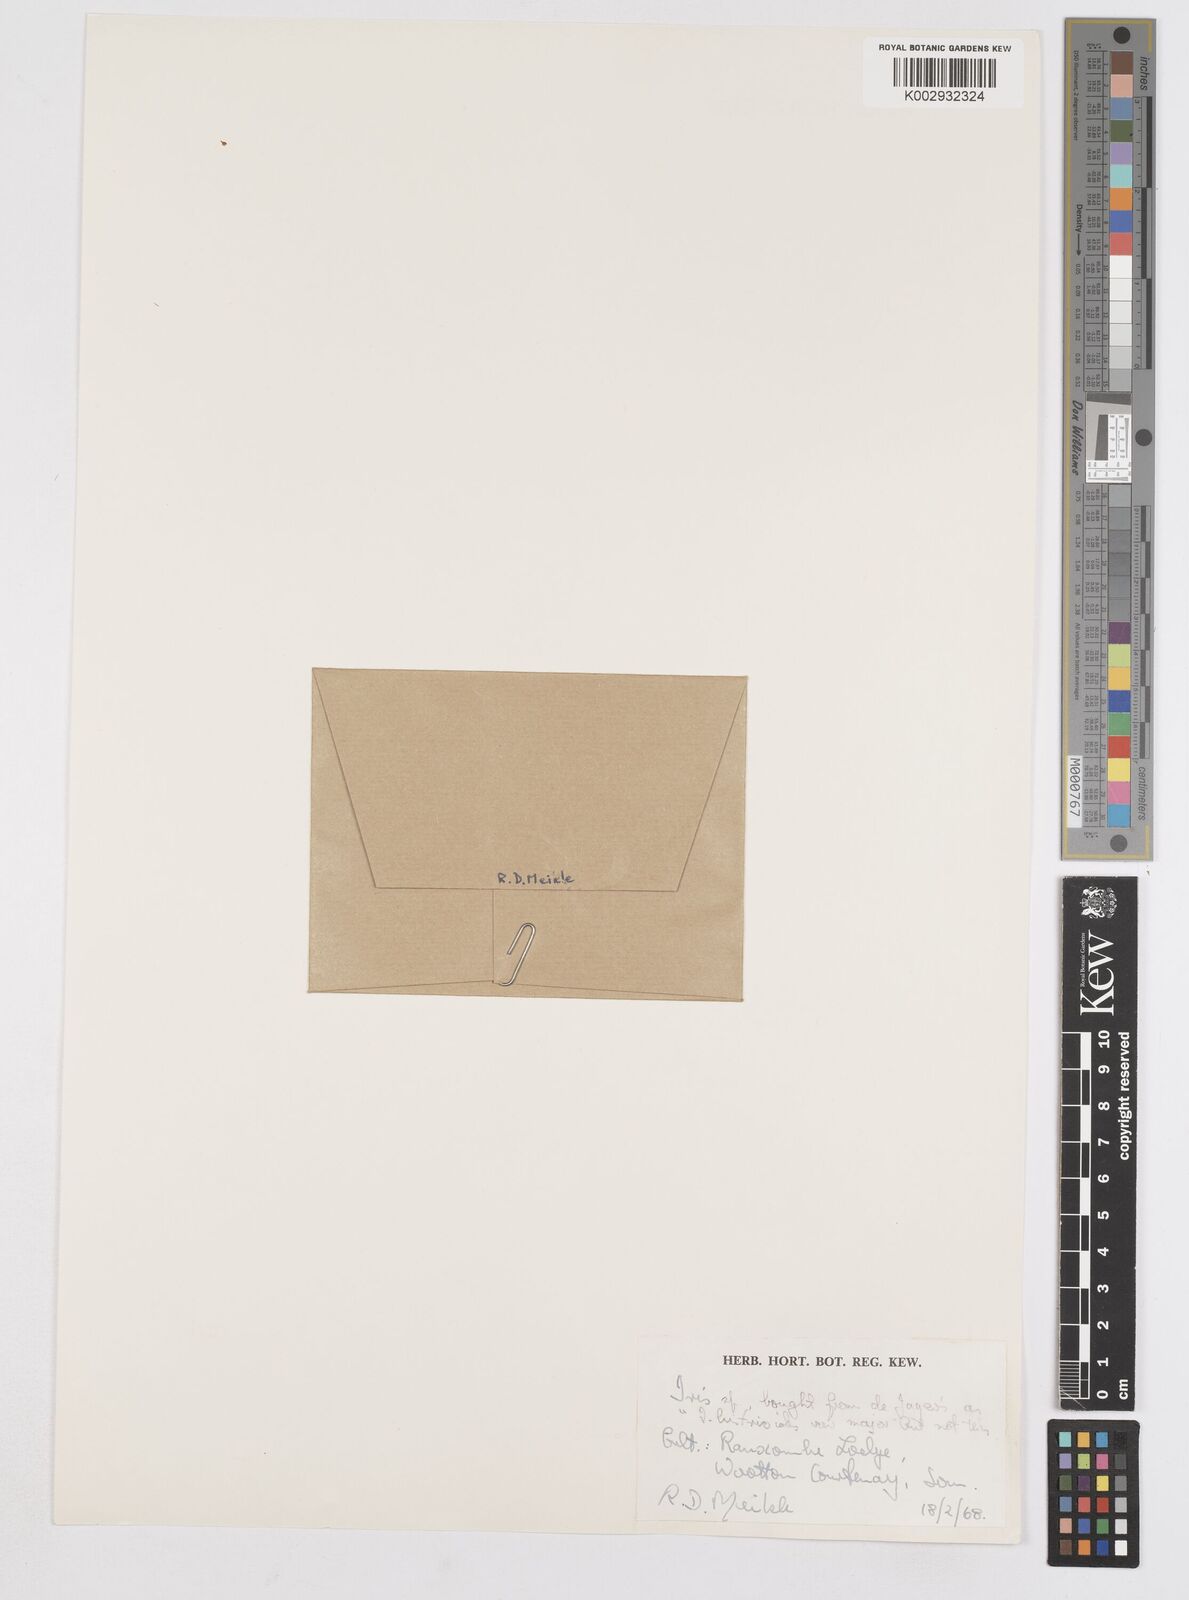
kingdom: Plantae
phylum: Tracheophyta
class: Liliopsida
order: Asparagales
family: Iridaceae
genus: Iris
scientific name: Iris reticulata
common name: Netted iris
